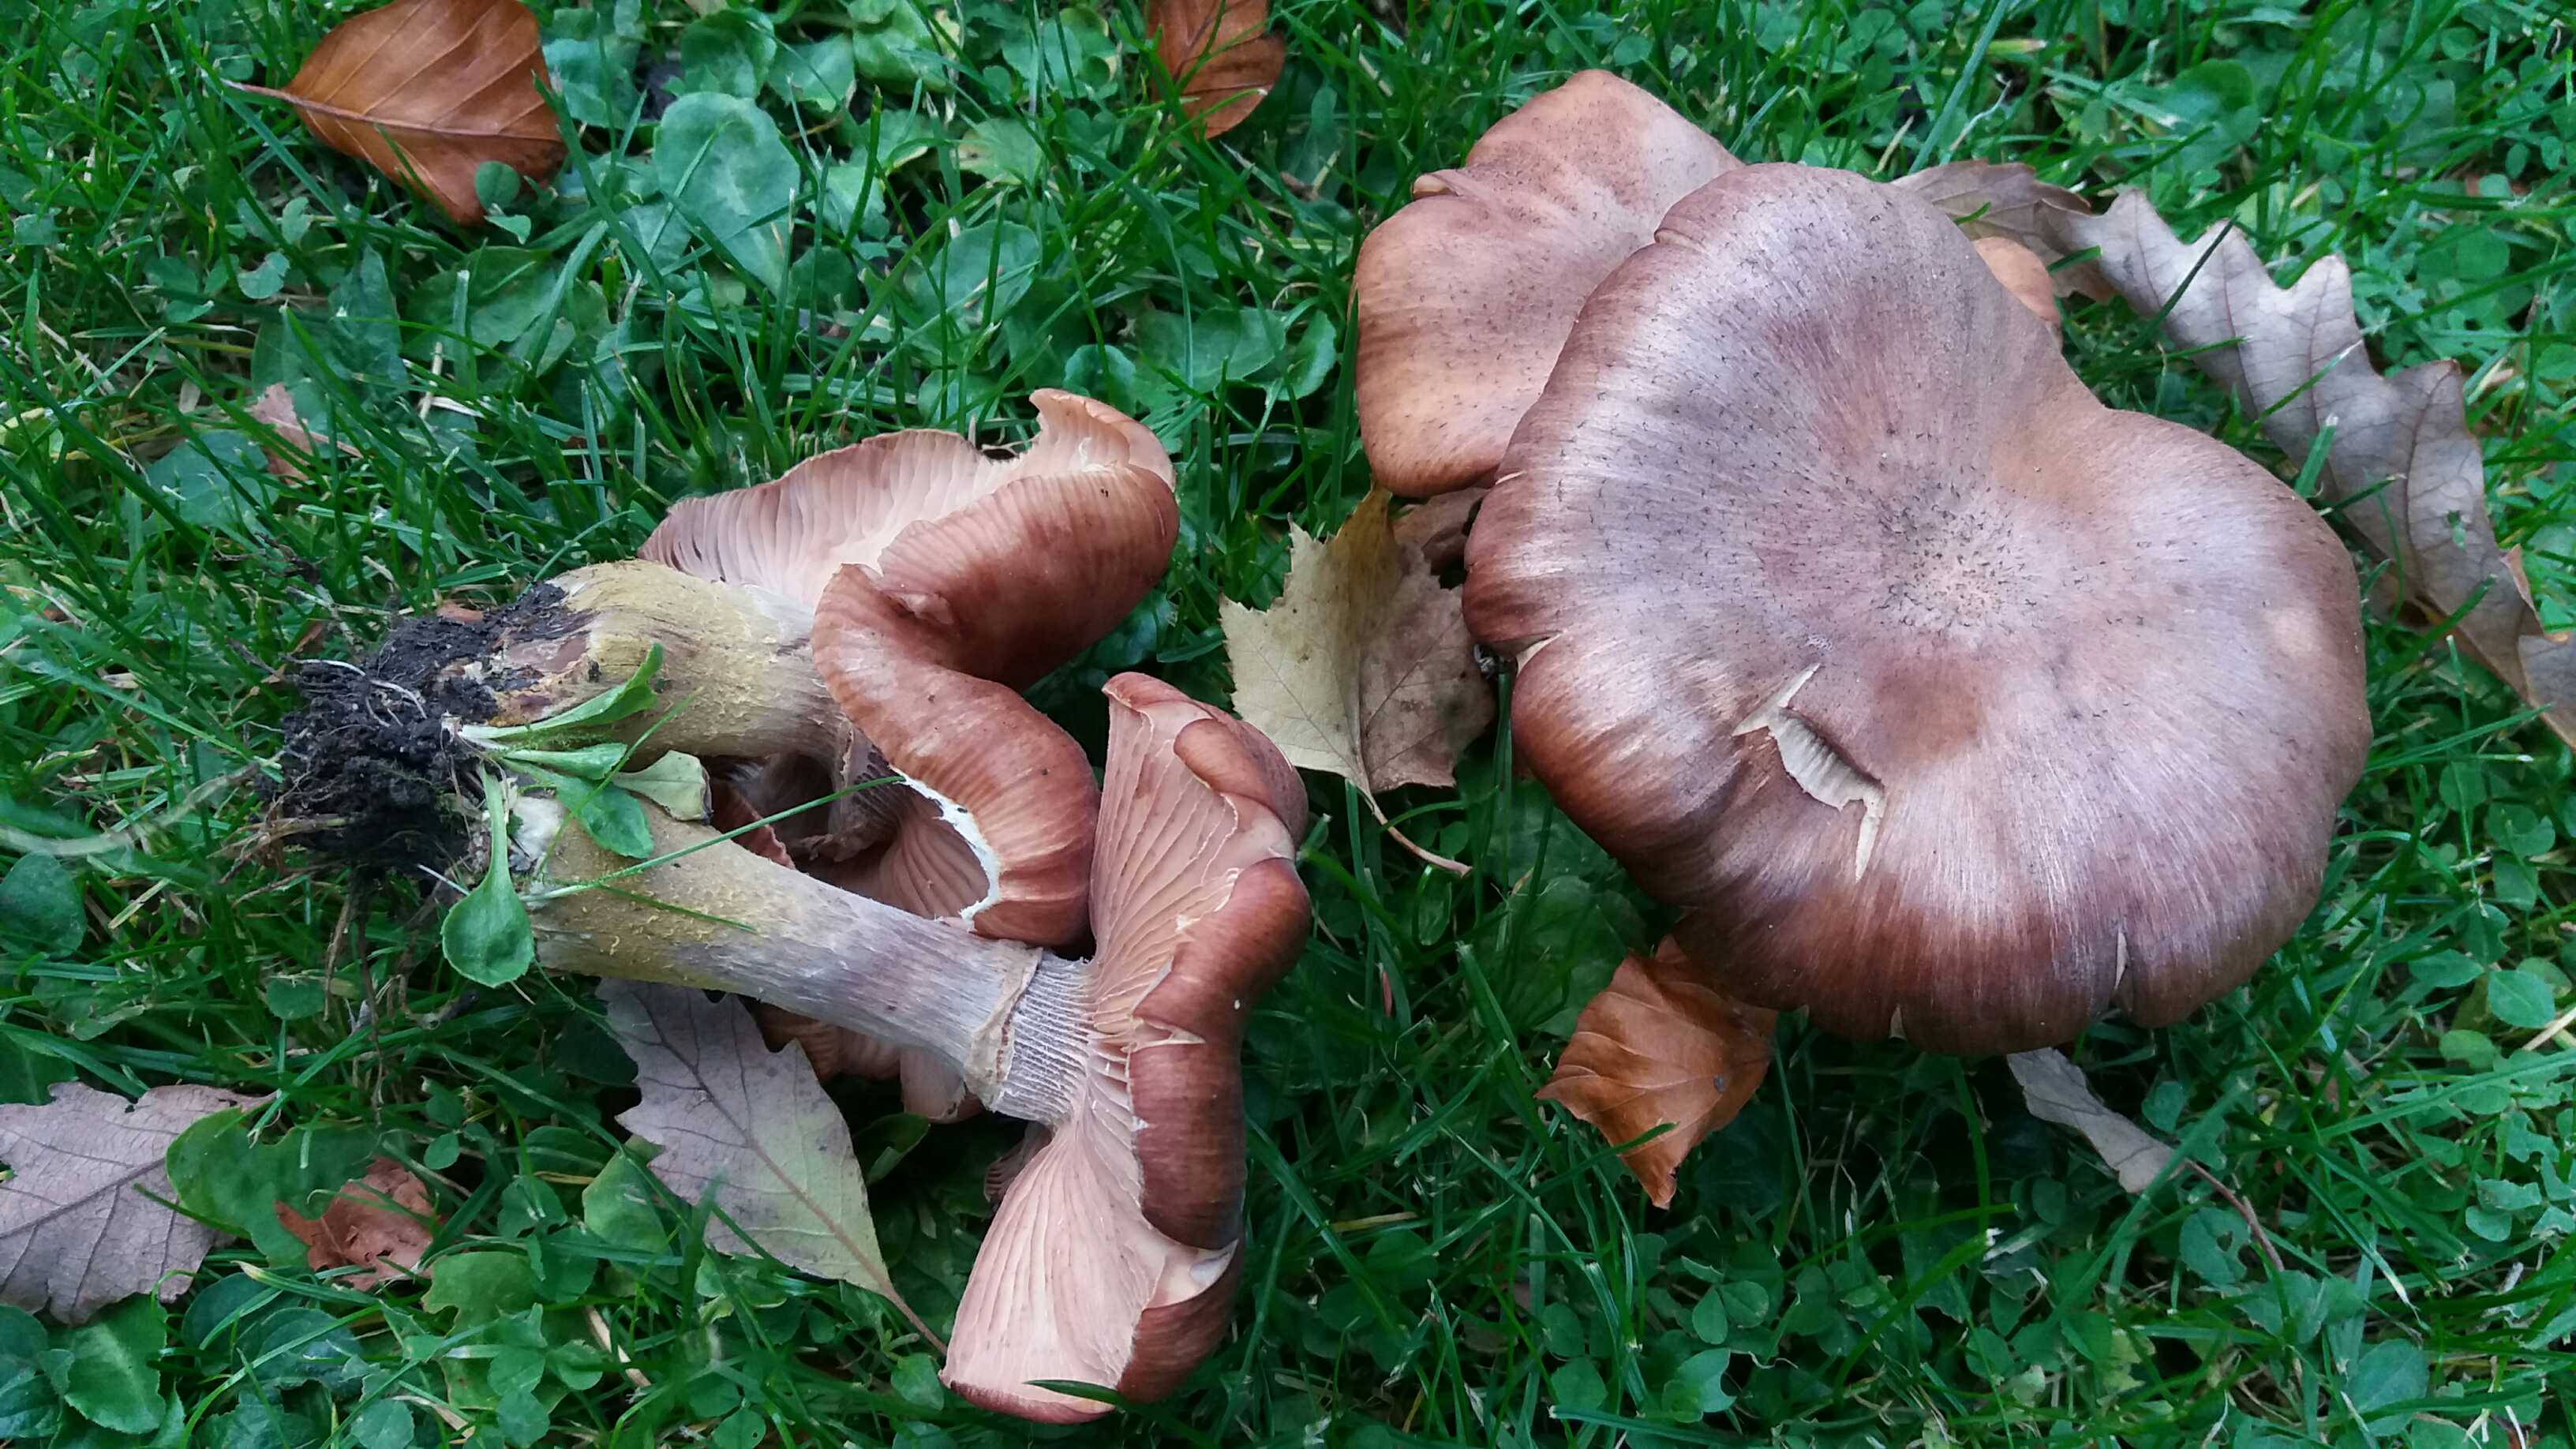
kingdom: Fungi
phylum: Basidiomycota
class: Agaricomycetes
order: Agaricales
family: Physalacriaceae
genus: Armillaria
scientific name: Armillaria lutea
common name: køllestokket honningsvamp
